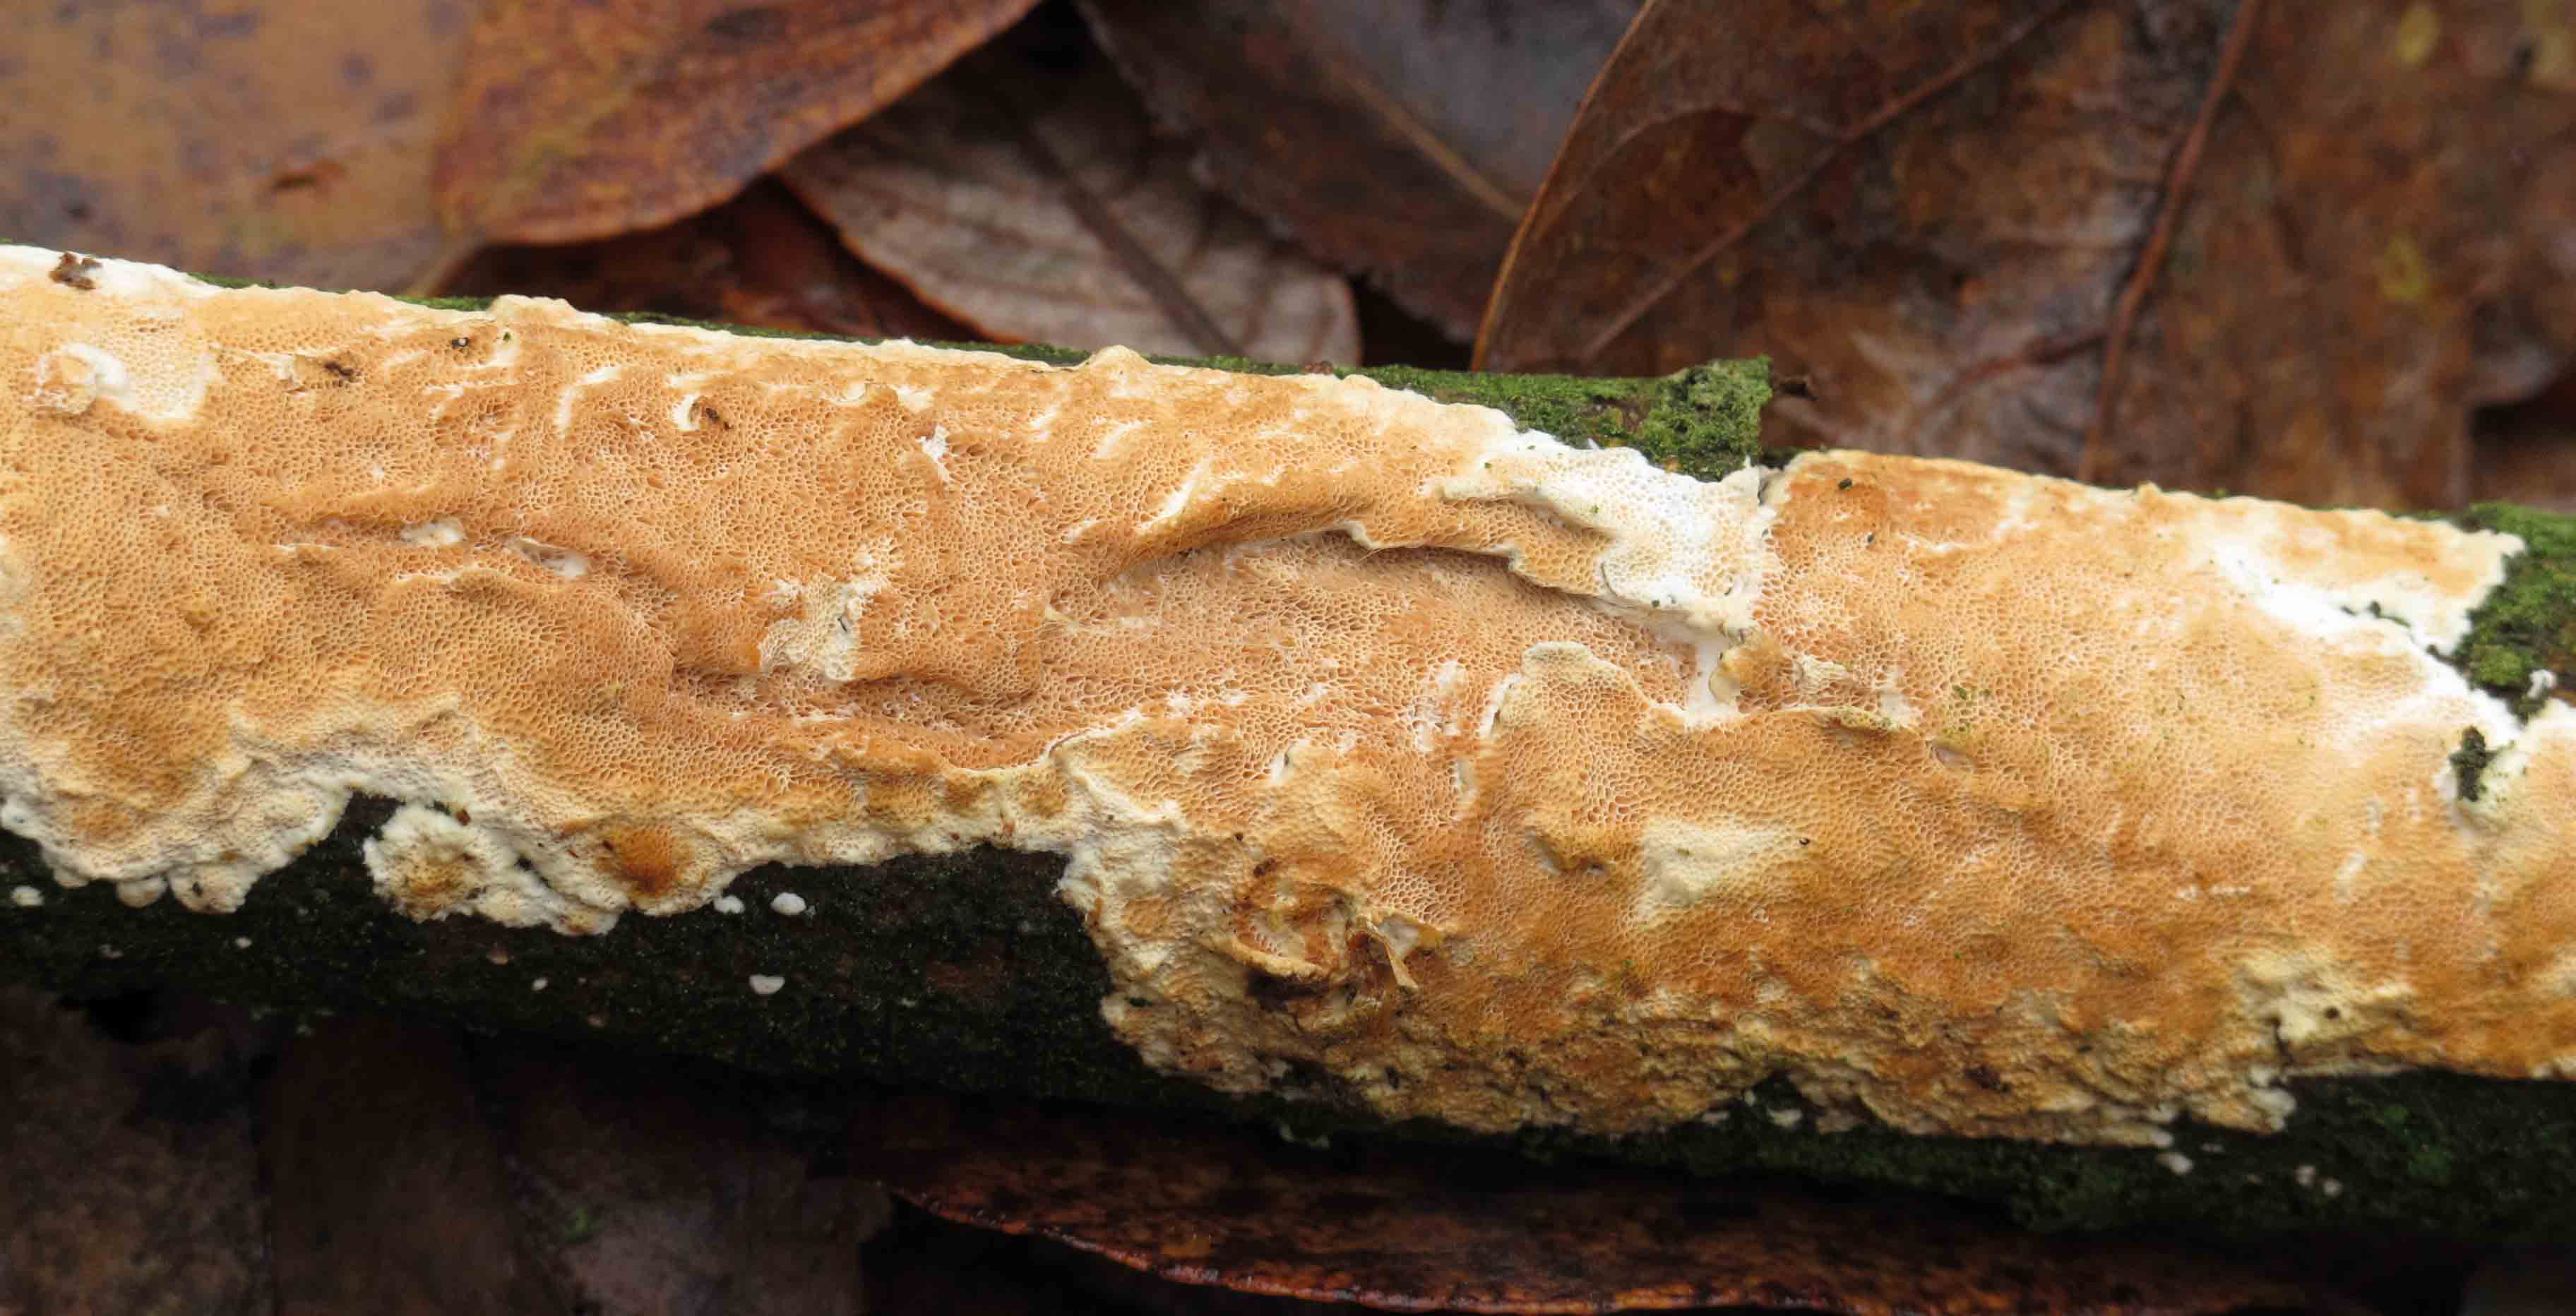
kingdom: Fungi
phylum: Basidiomycota
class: Agaricomycetes
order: Polyporales
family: Irpicaceae
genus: Resiniporus
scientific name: Resiniporus resinascens
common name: trist pastelporesvamp
